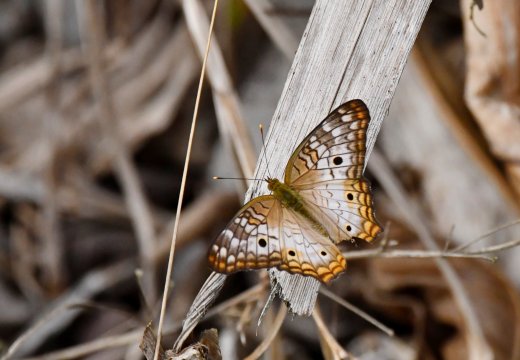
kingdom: Animalia
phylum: Arthropoda
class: Insecta
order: Lepidoptera
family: Nymphalidae
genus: Anartia
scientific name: Anartia jatrophae
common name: White Peacock
